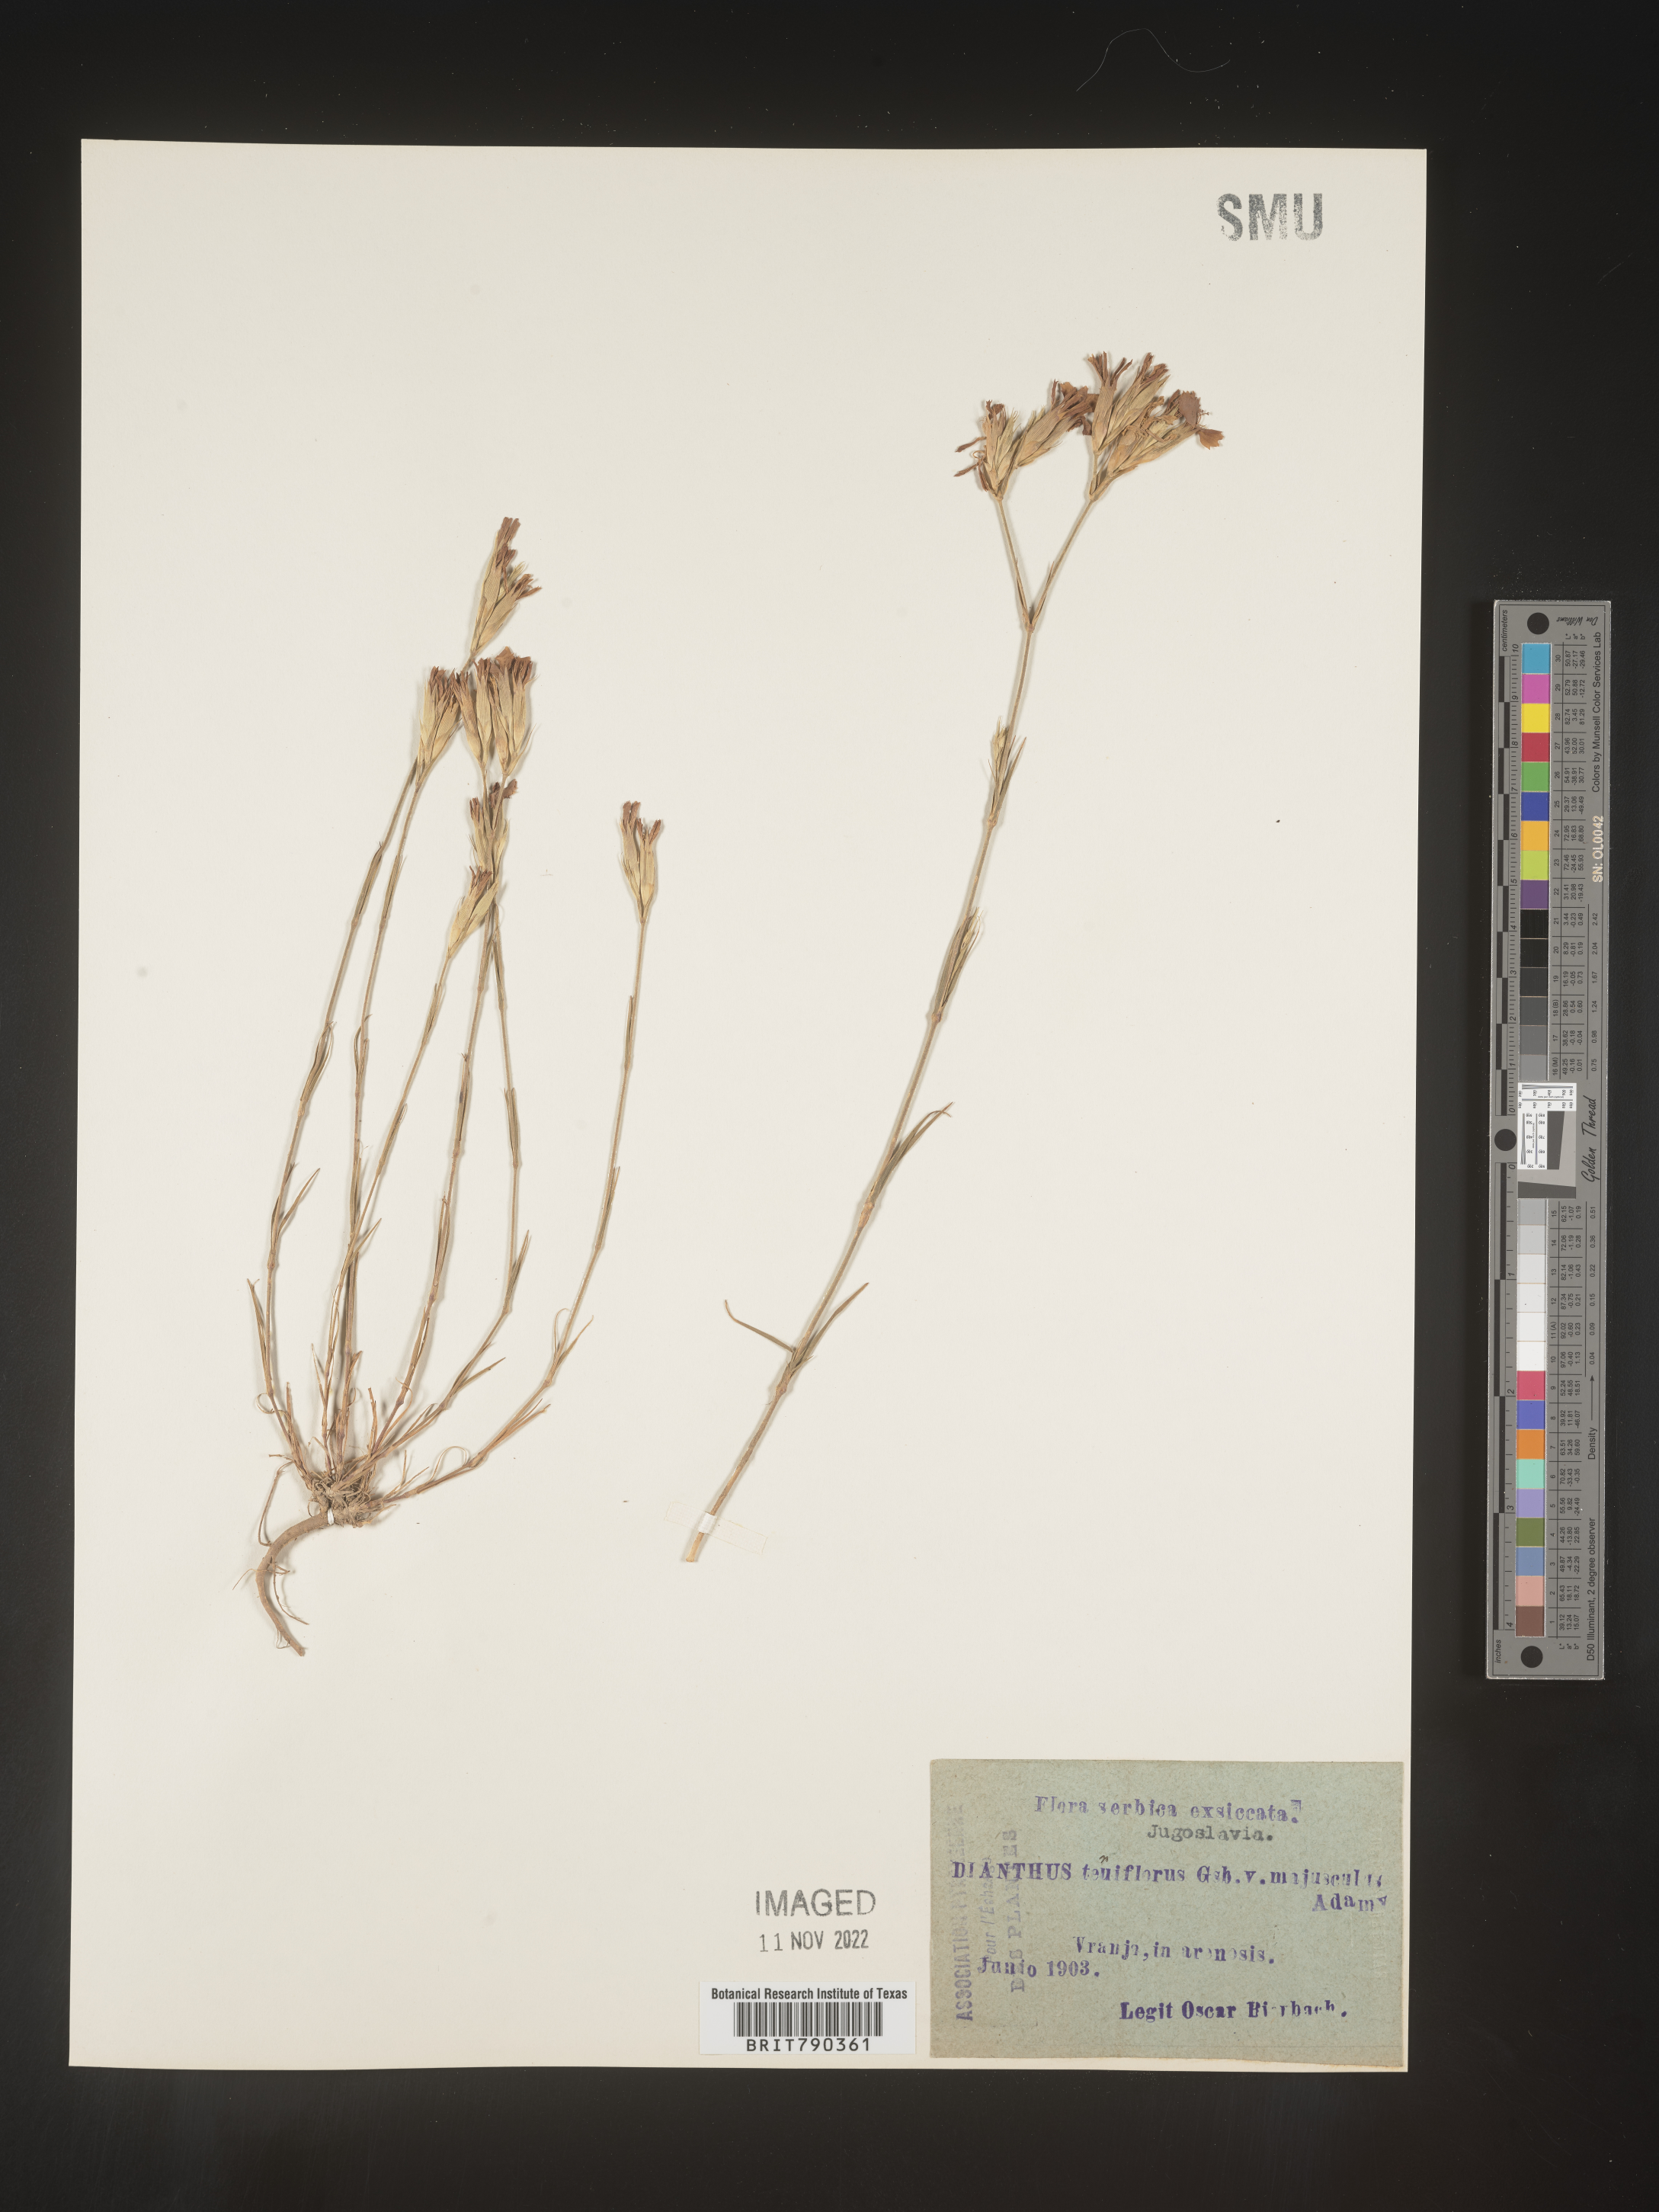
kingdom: Plantae
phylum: Tracheophyta
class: Magnoliopsida
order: Caryophyllales
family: Caryophyllaceae
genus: Dianthus
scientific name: Dianthus
